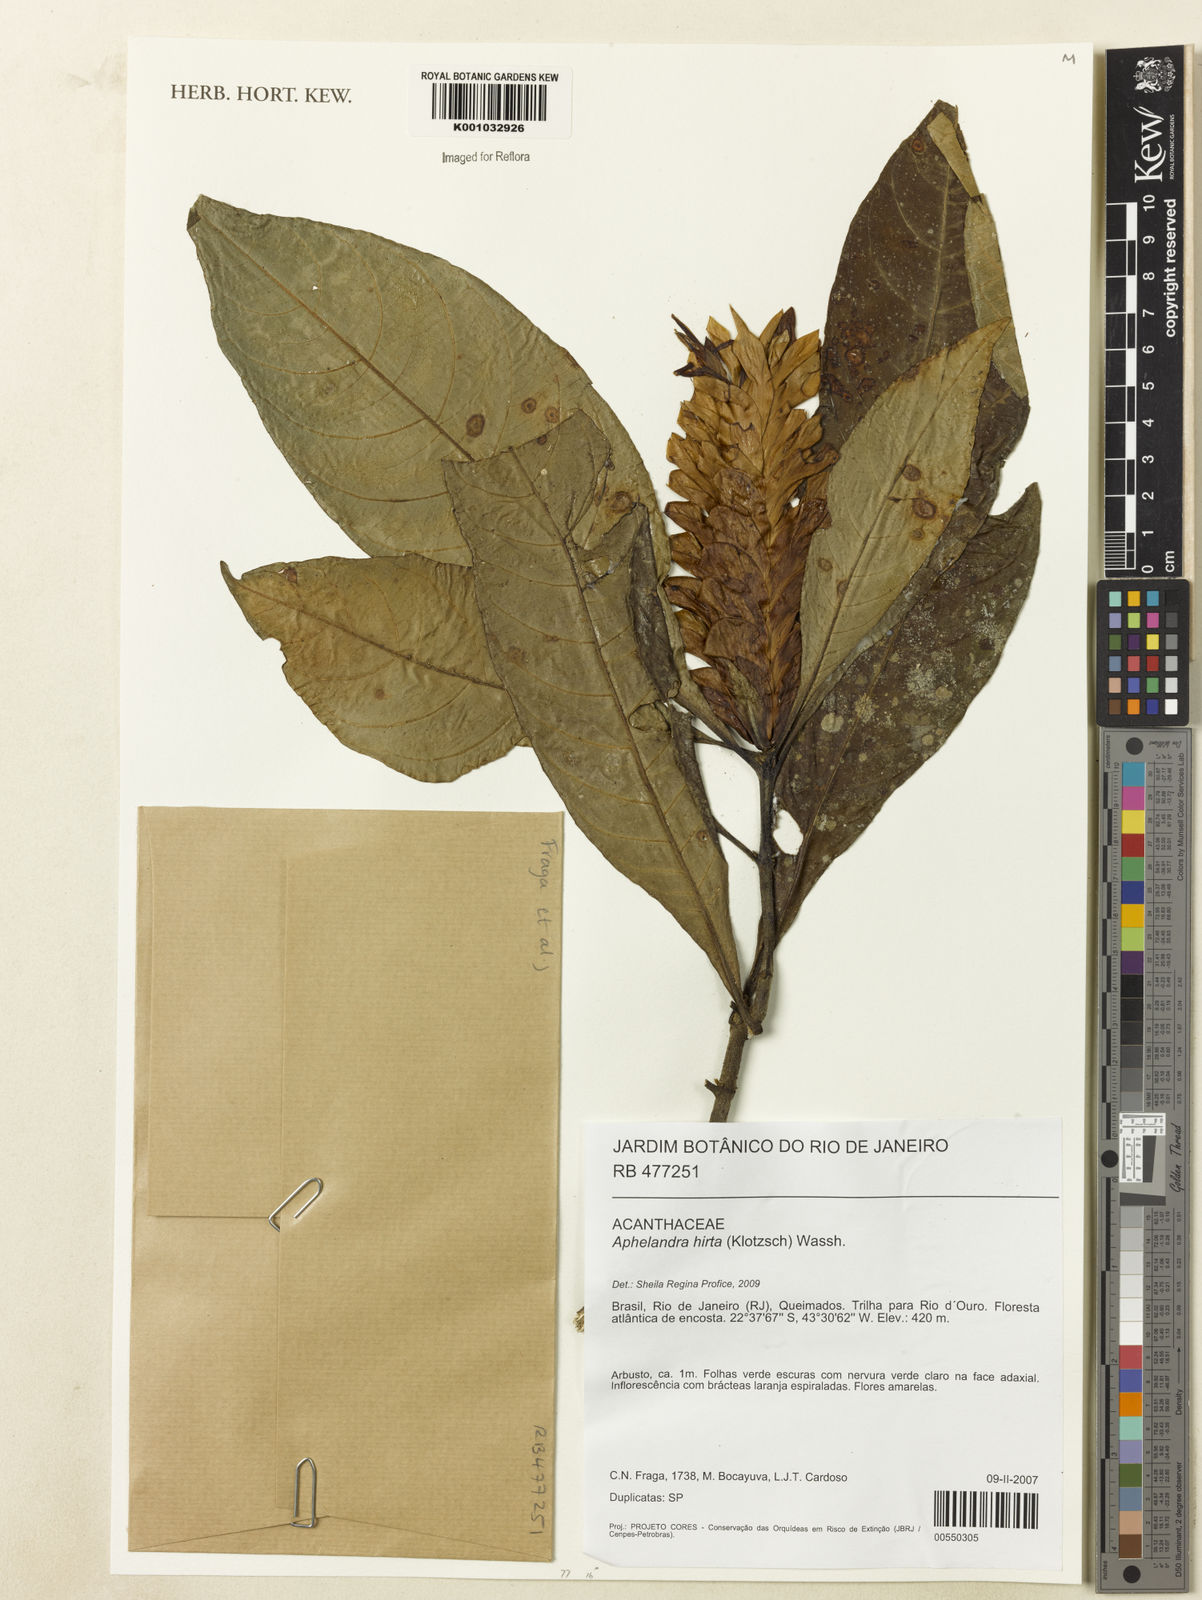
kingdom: Plantae
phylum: Tracheophyta
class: Magnoliopsida
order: Lamiales
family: Acanthaceae
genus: Aphelandra
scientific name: Aphelandra hirta
